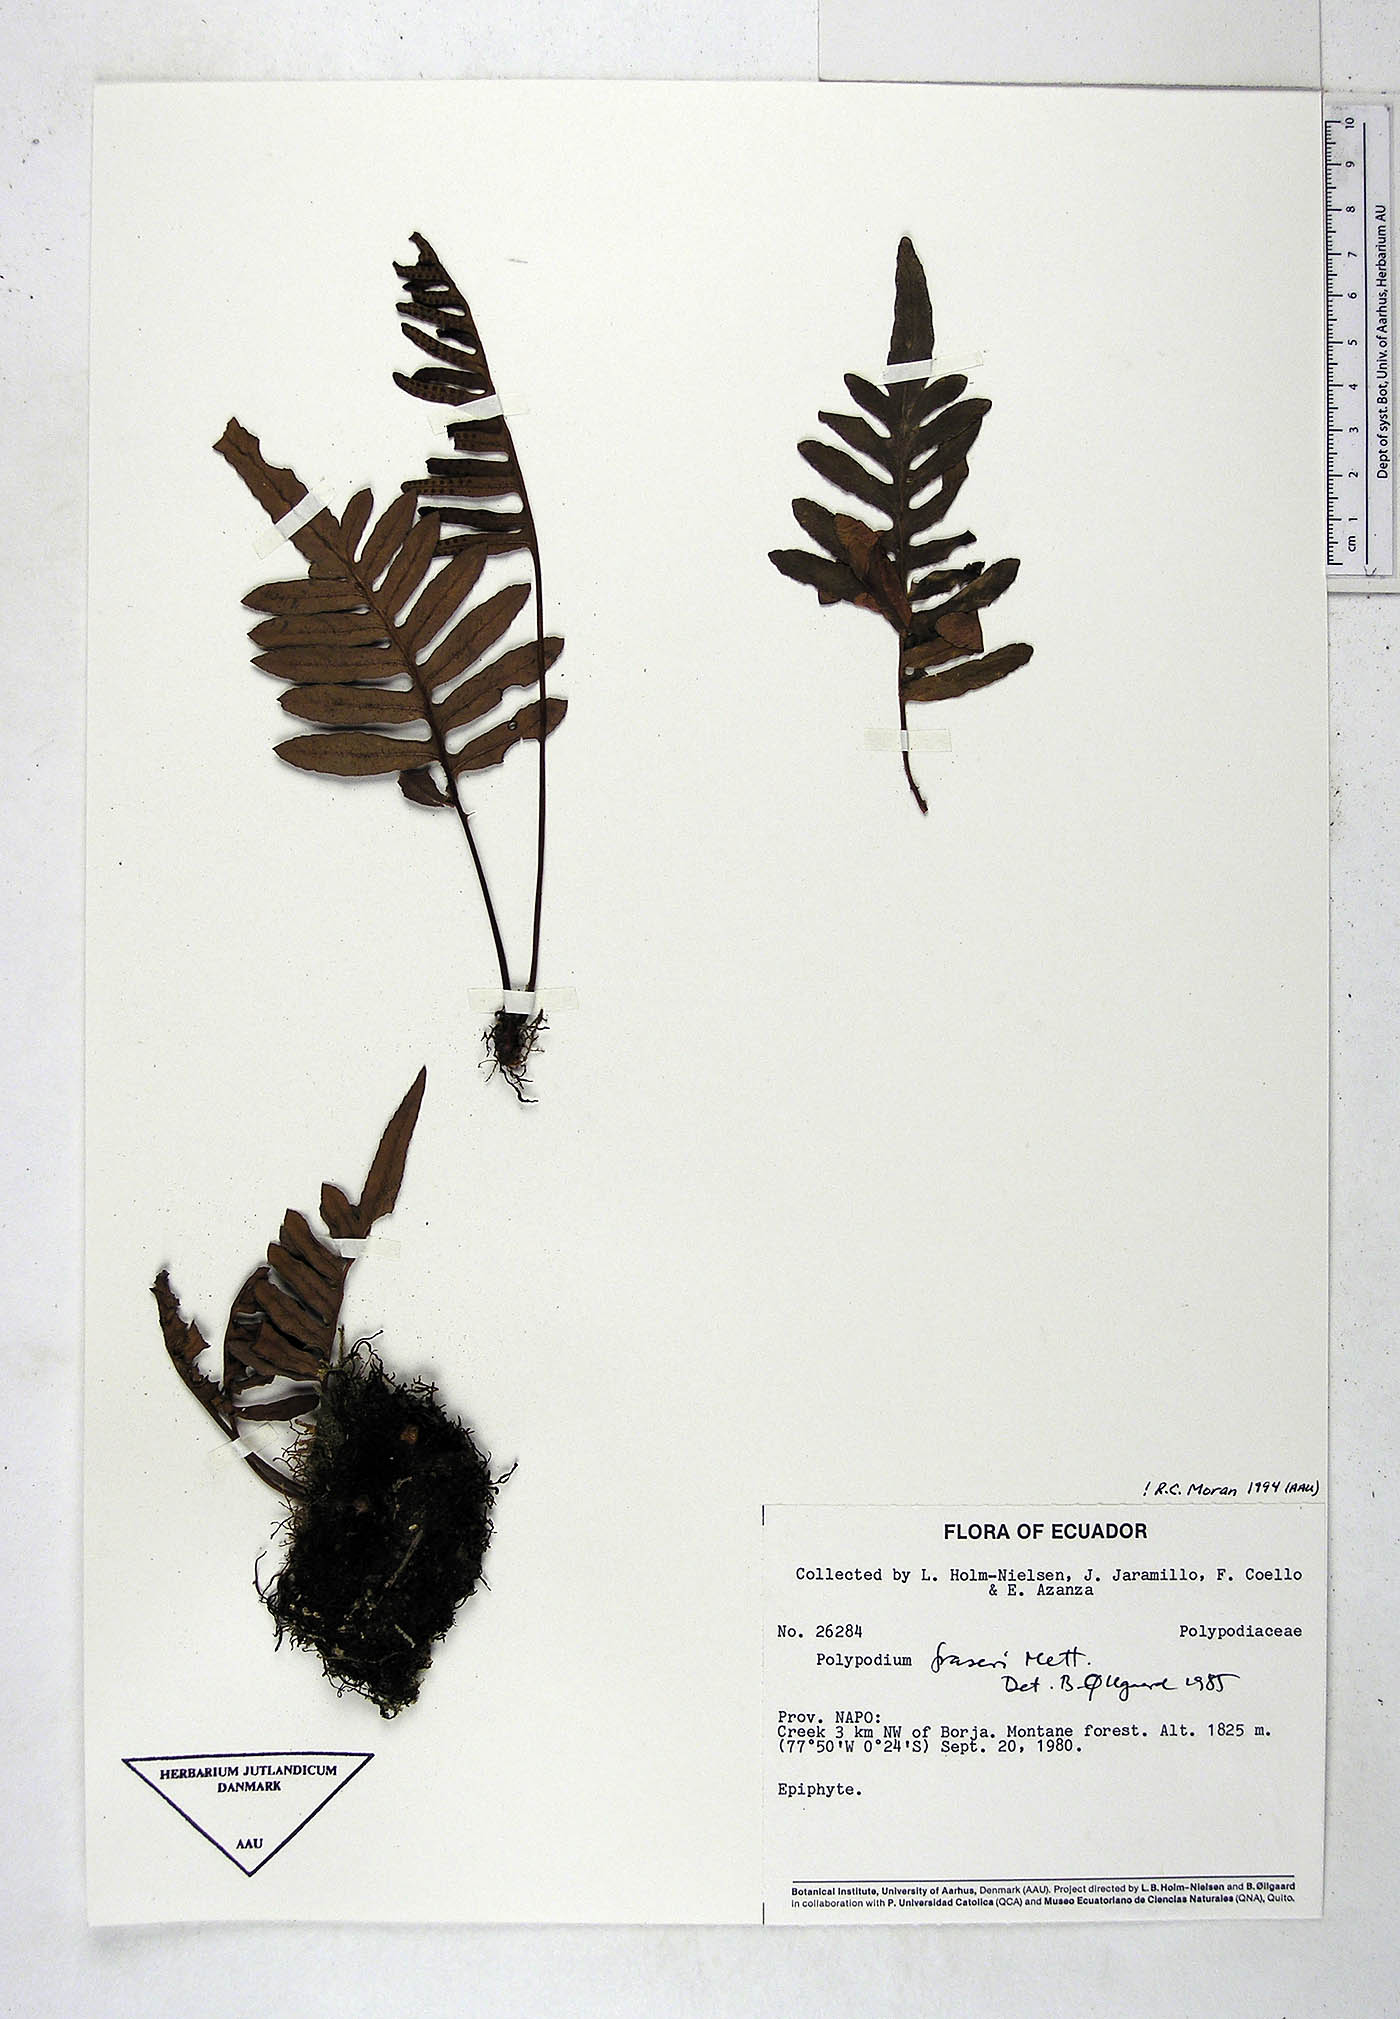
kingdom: Plantae
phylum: Tracheophyta
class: Polypodiopsida
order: Polypodiales
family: Polypodiaceae
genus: Pleopeltis
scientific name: Pleopeltis fraseri
